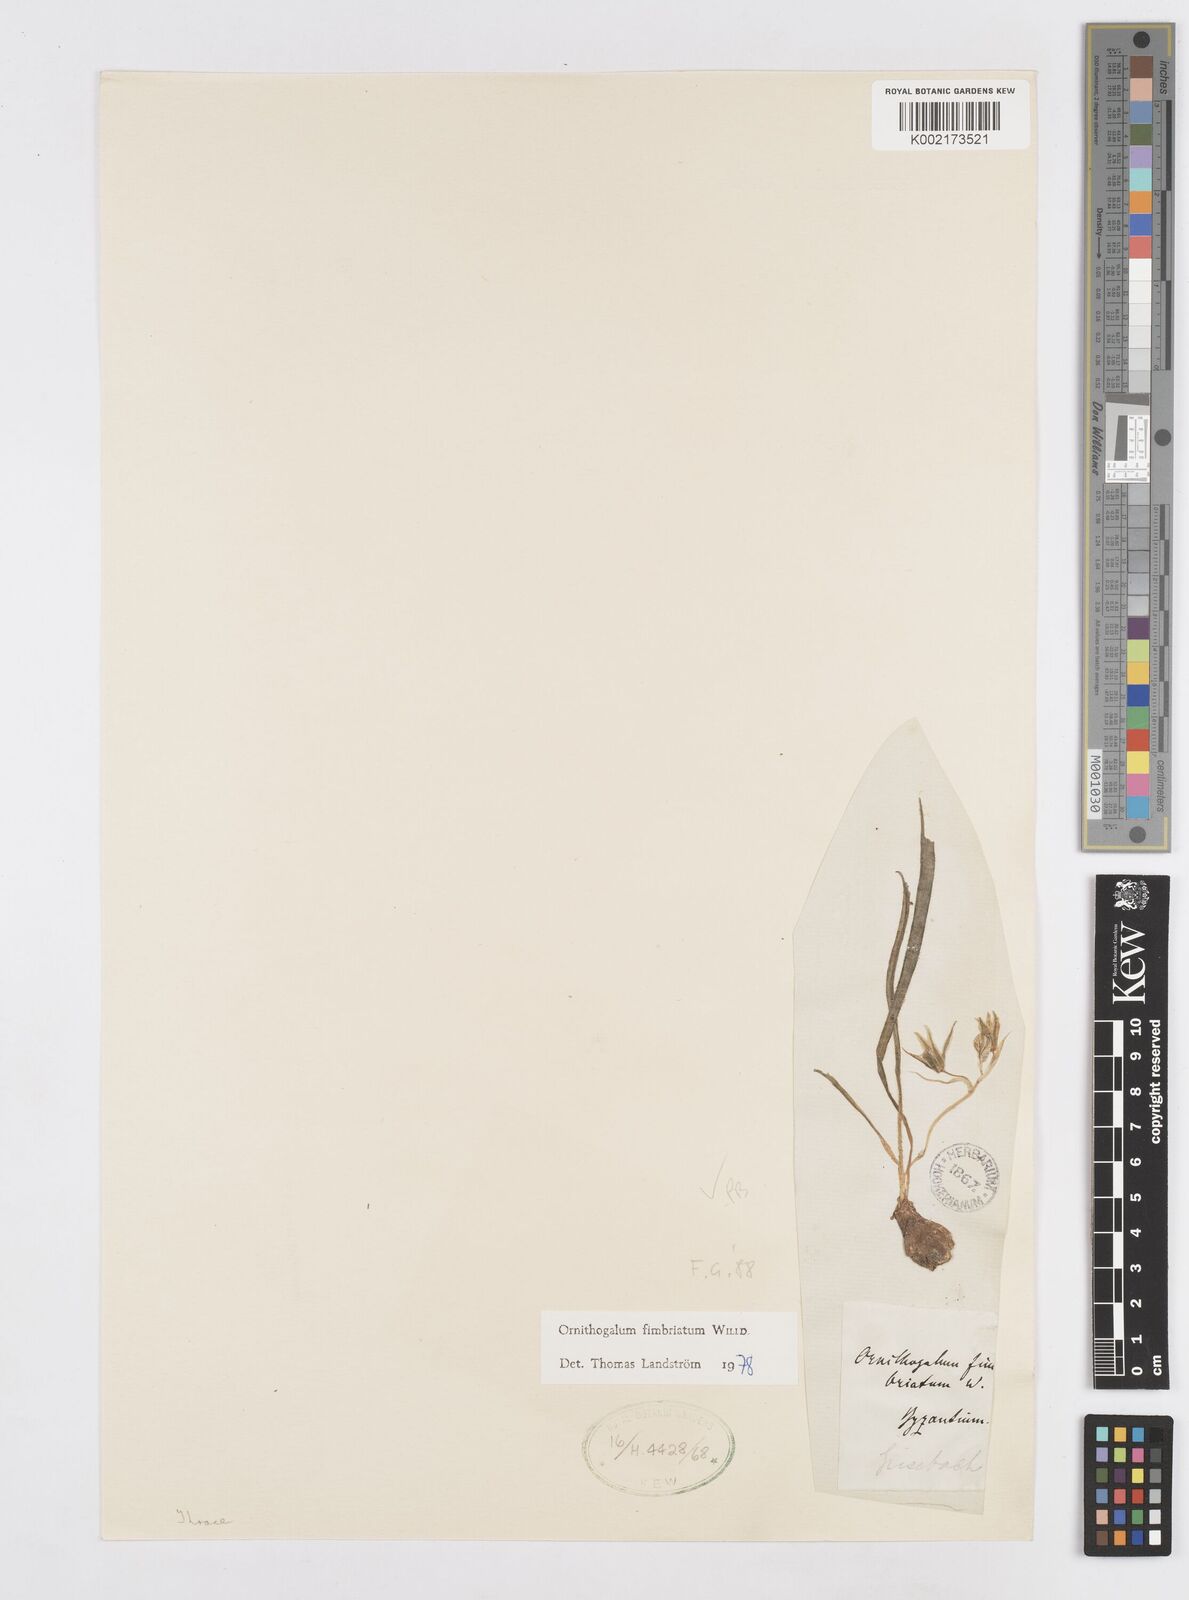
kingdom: Plantae
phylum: Tracheophyta
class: Liliopsida
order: Asparagales
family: Asparagaceae
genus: Ornithogalum
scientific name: Ornithogalum fimbriatum
